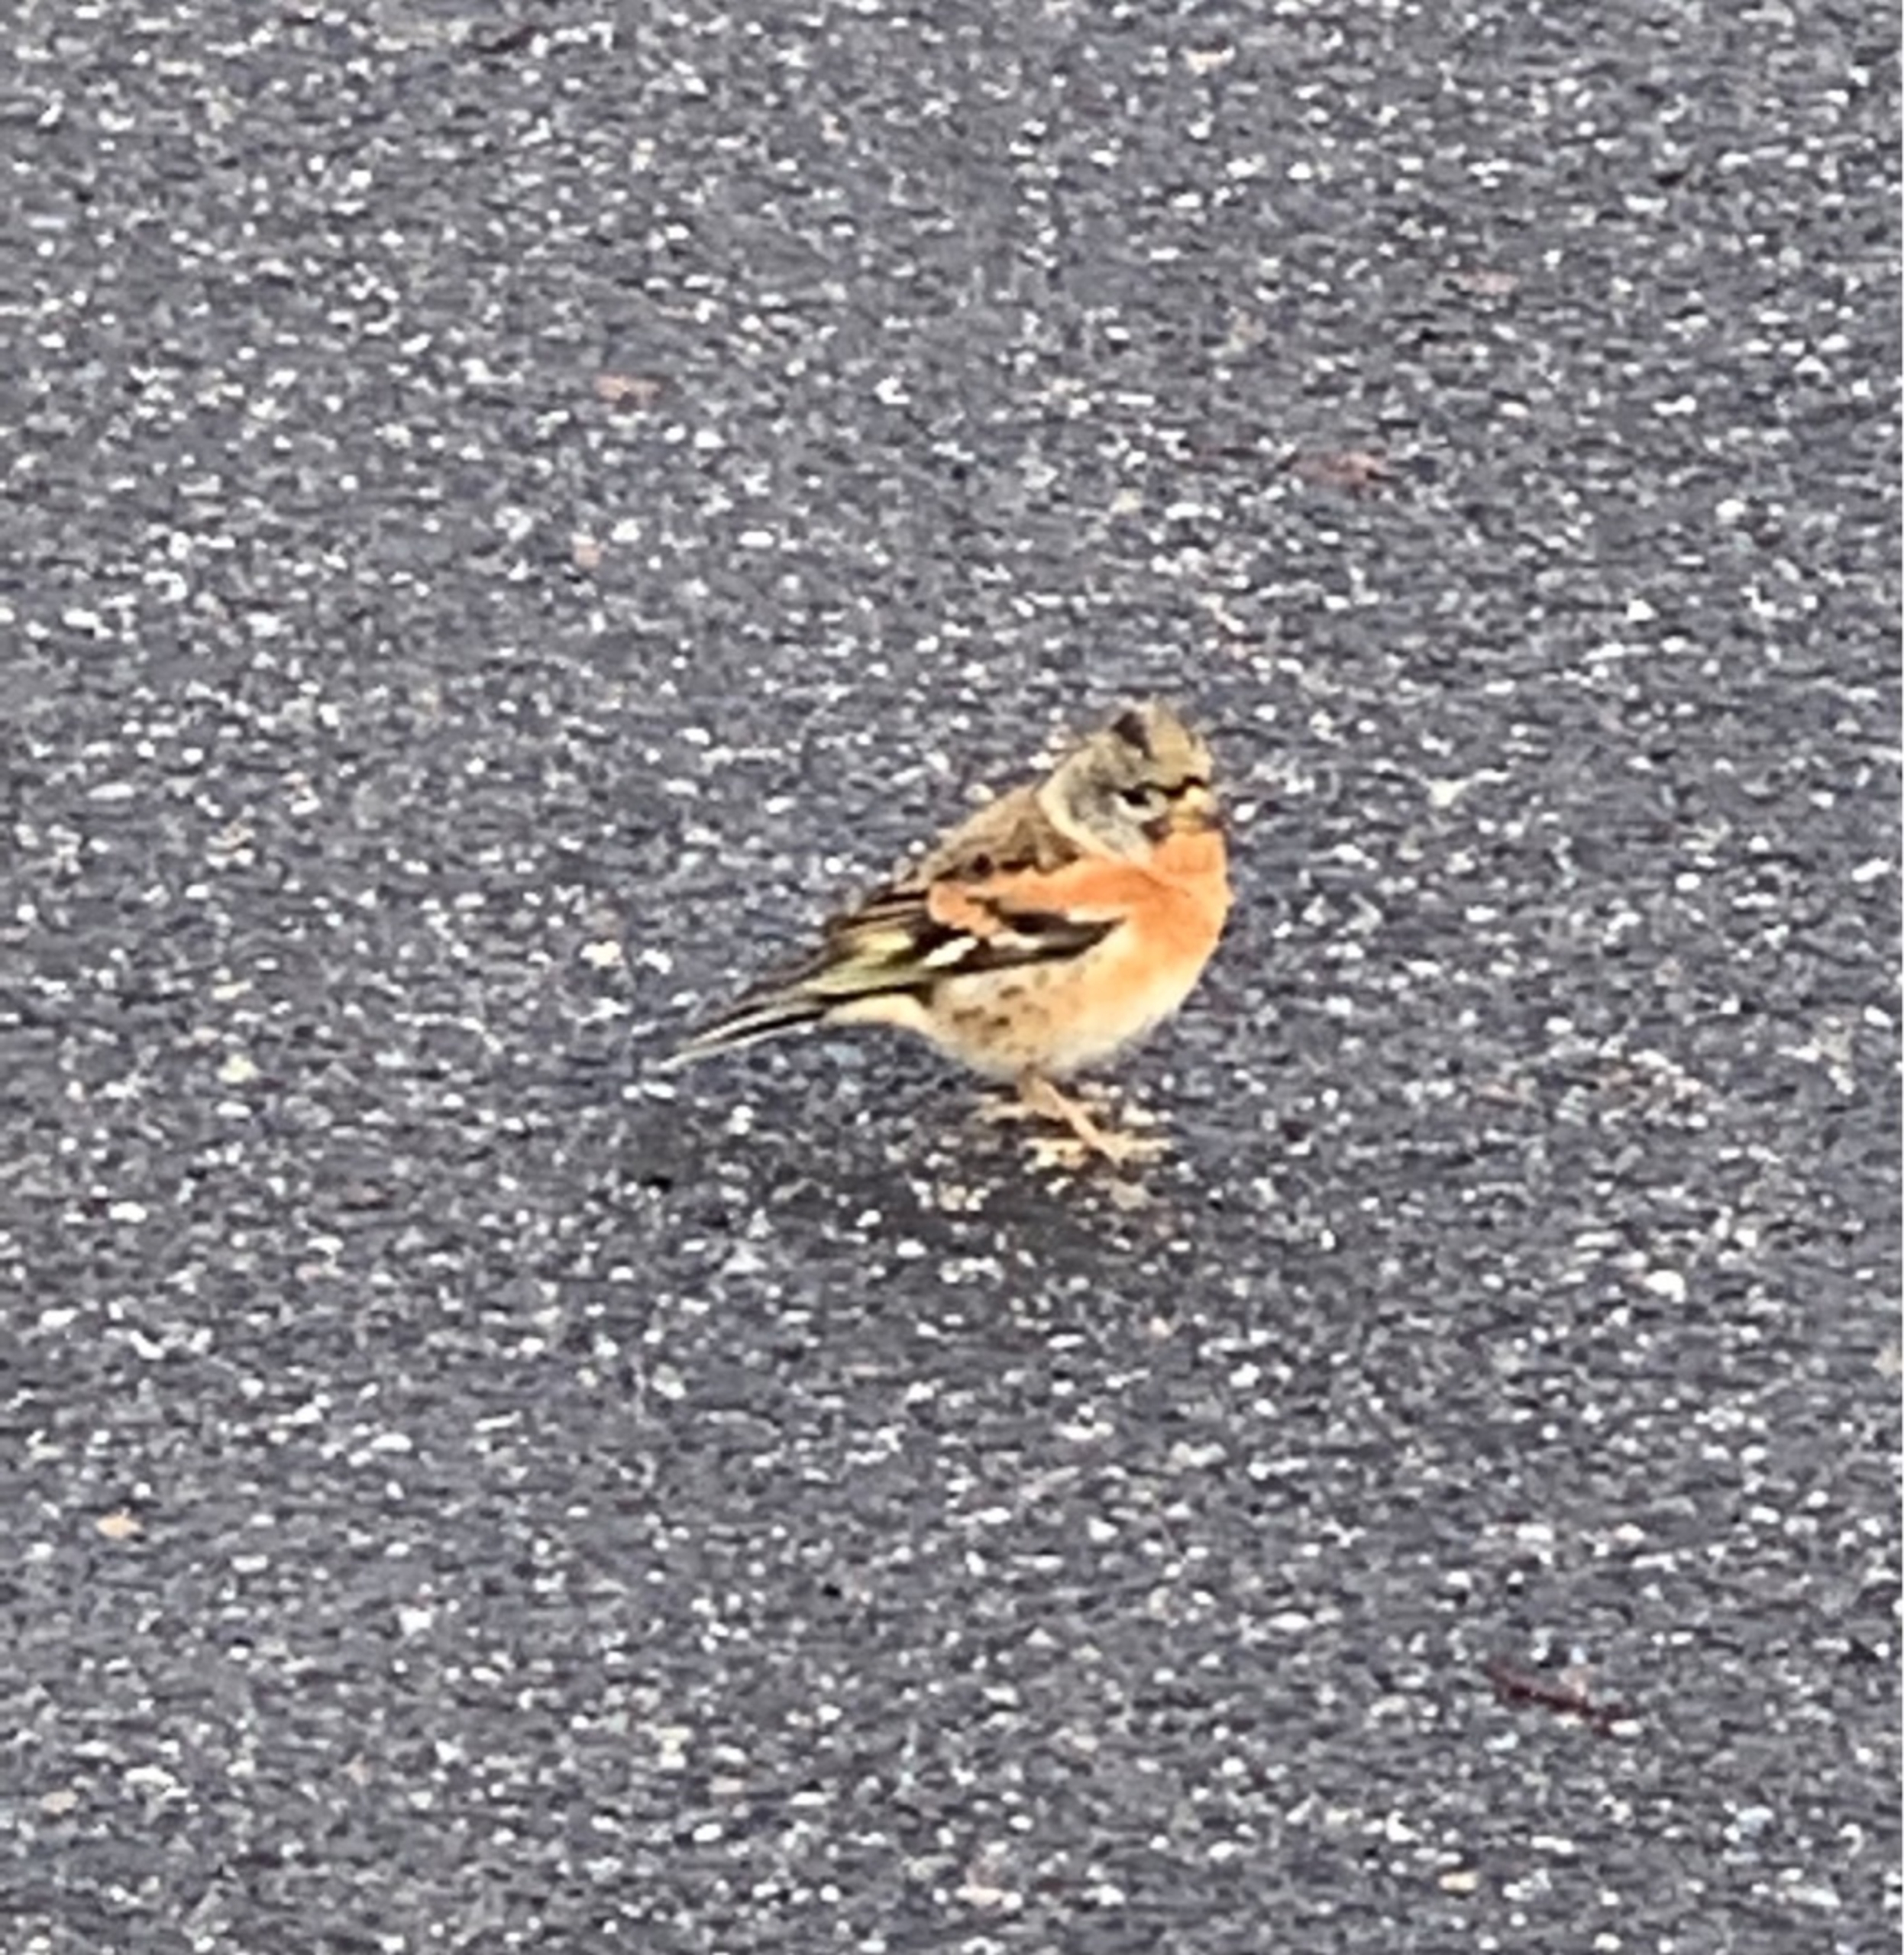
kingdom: Animalia
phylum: Chordata
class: Aves
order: Passeriformes
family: Fringillidae
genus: Fringilla
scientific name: Fringilla montifringilla
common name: Kvækerfinke
